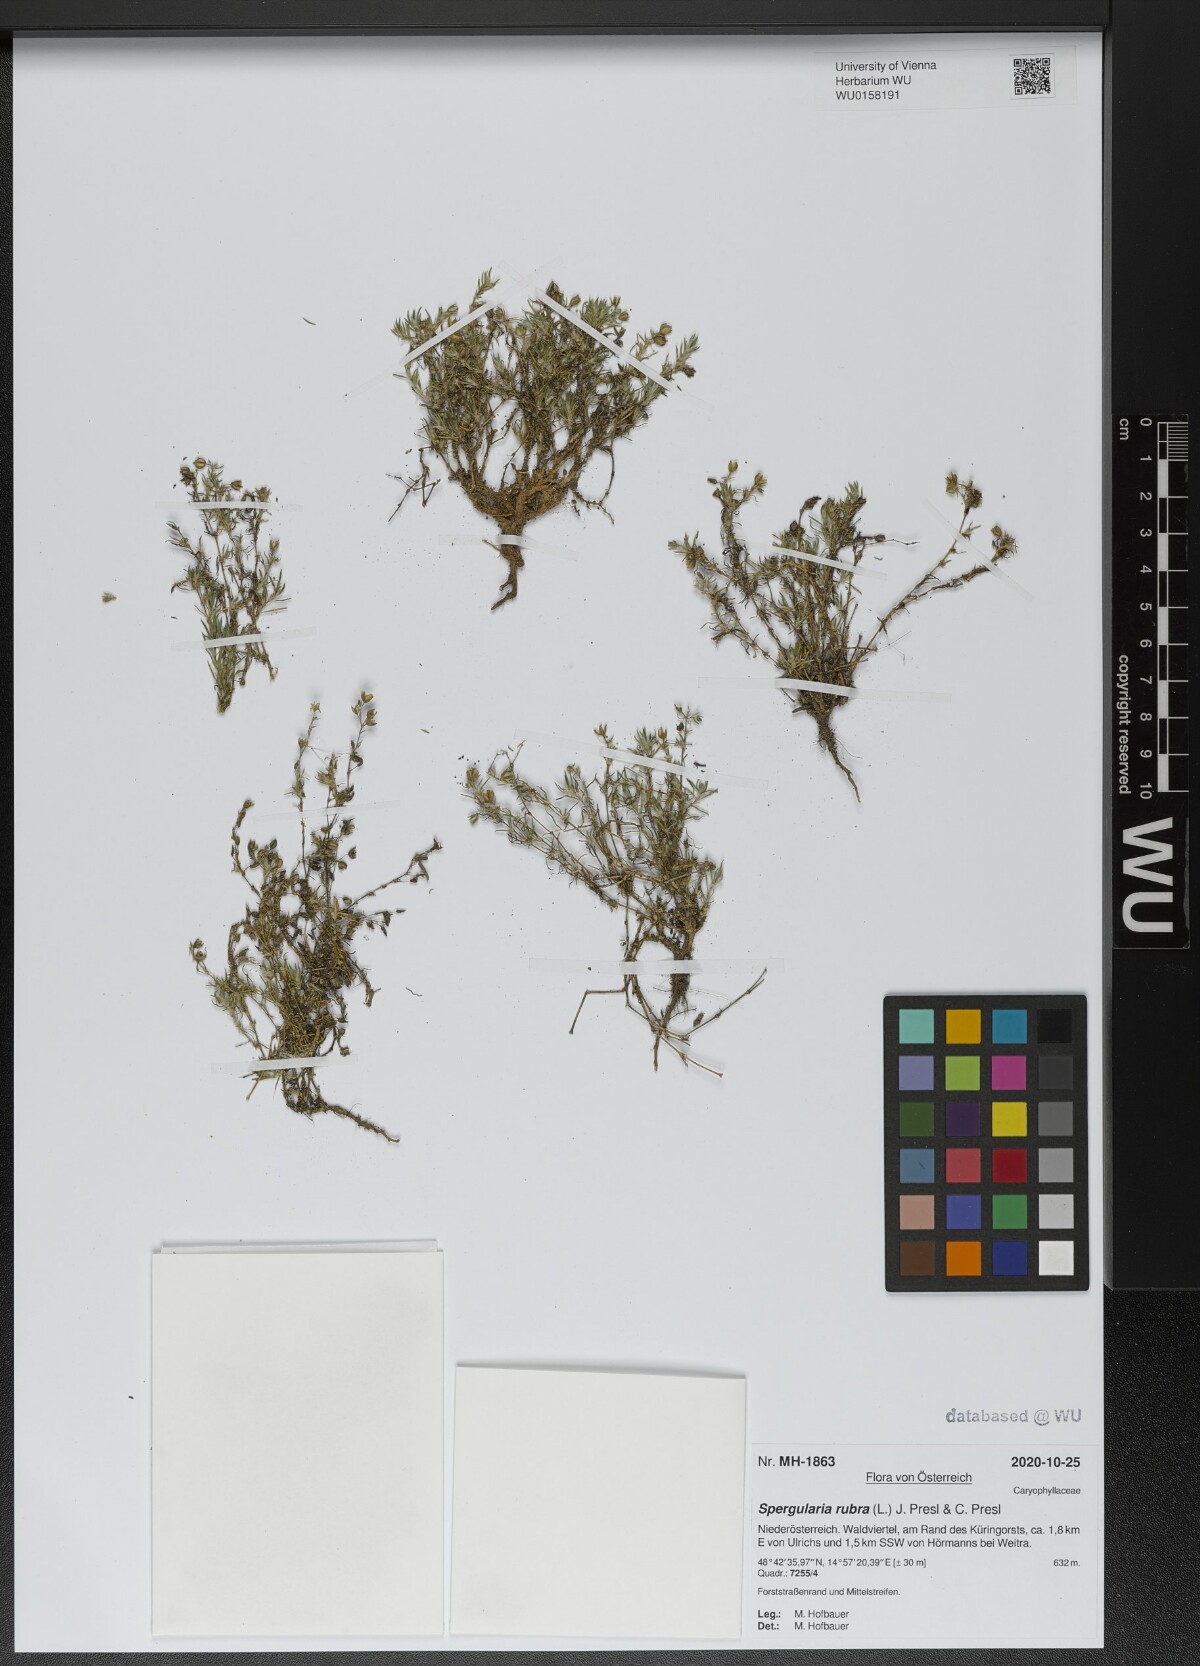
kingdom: Plantae
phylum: Tracheophyta
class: Magnoliopsida
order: Caryophyllales
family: Caryophyllaceae
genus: Spergularia
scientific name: Spergularia rubra
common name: Red sand-spurrey
